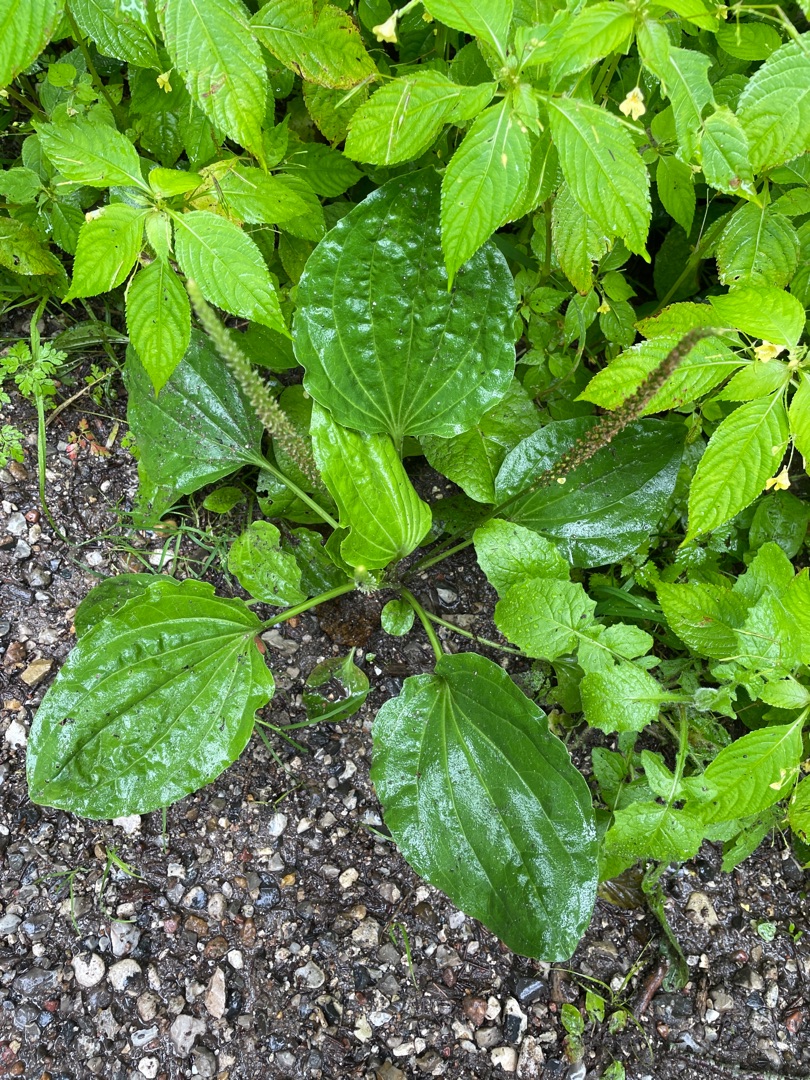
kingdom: Plantae
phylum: Tracheophyta
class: Magnoliopsida
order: Lamiales
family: Plantaginaceae
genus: Plantago
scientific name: Plantago major
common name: Glat vejbred
